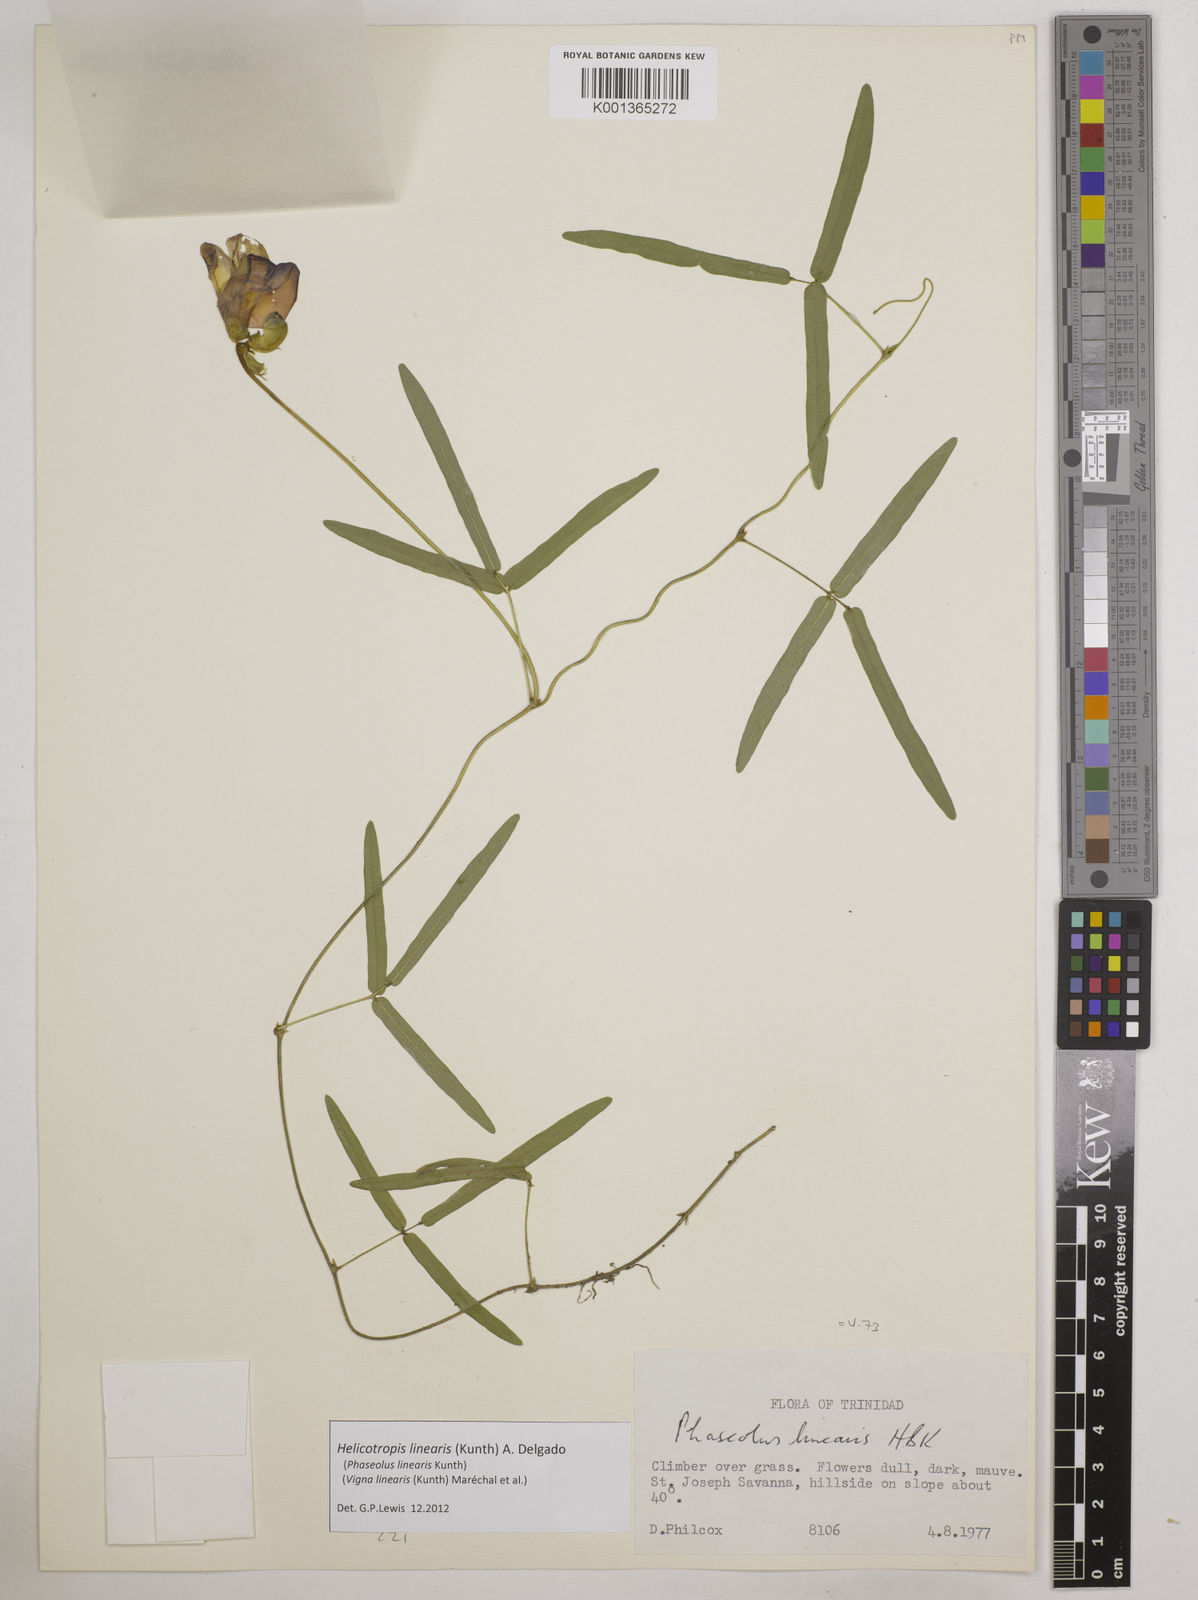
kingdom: Plantae
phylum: Tracheophyta
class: Magnoliopsida
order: Fabales
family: Fabaceae
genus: Helicotropis
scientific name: Helicotropis linearis
